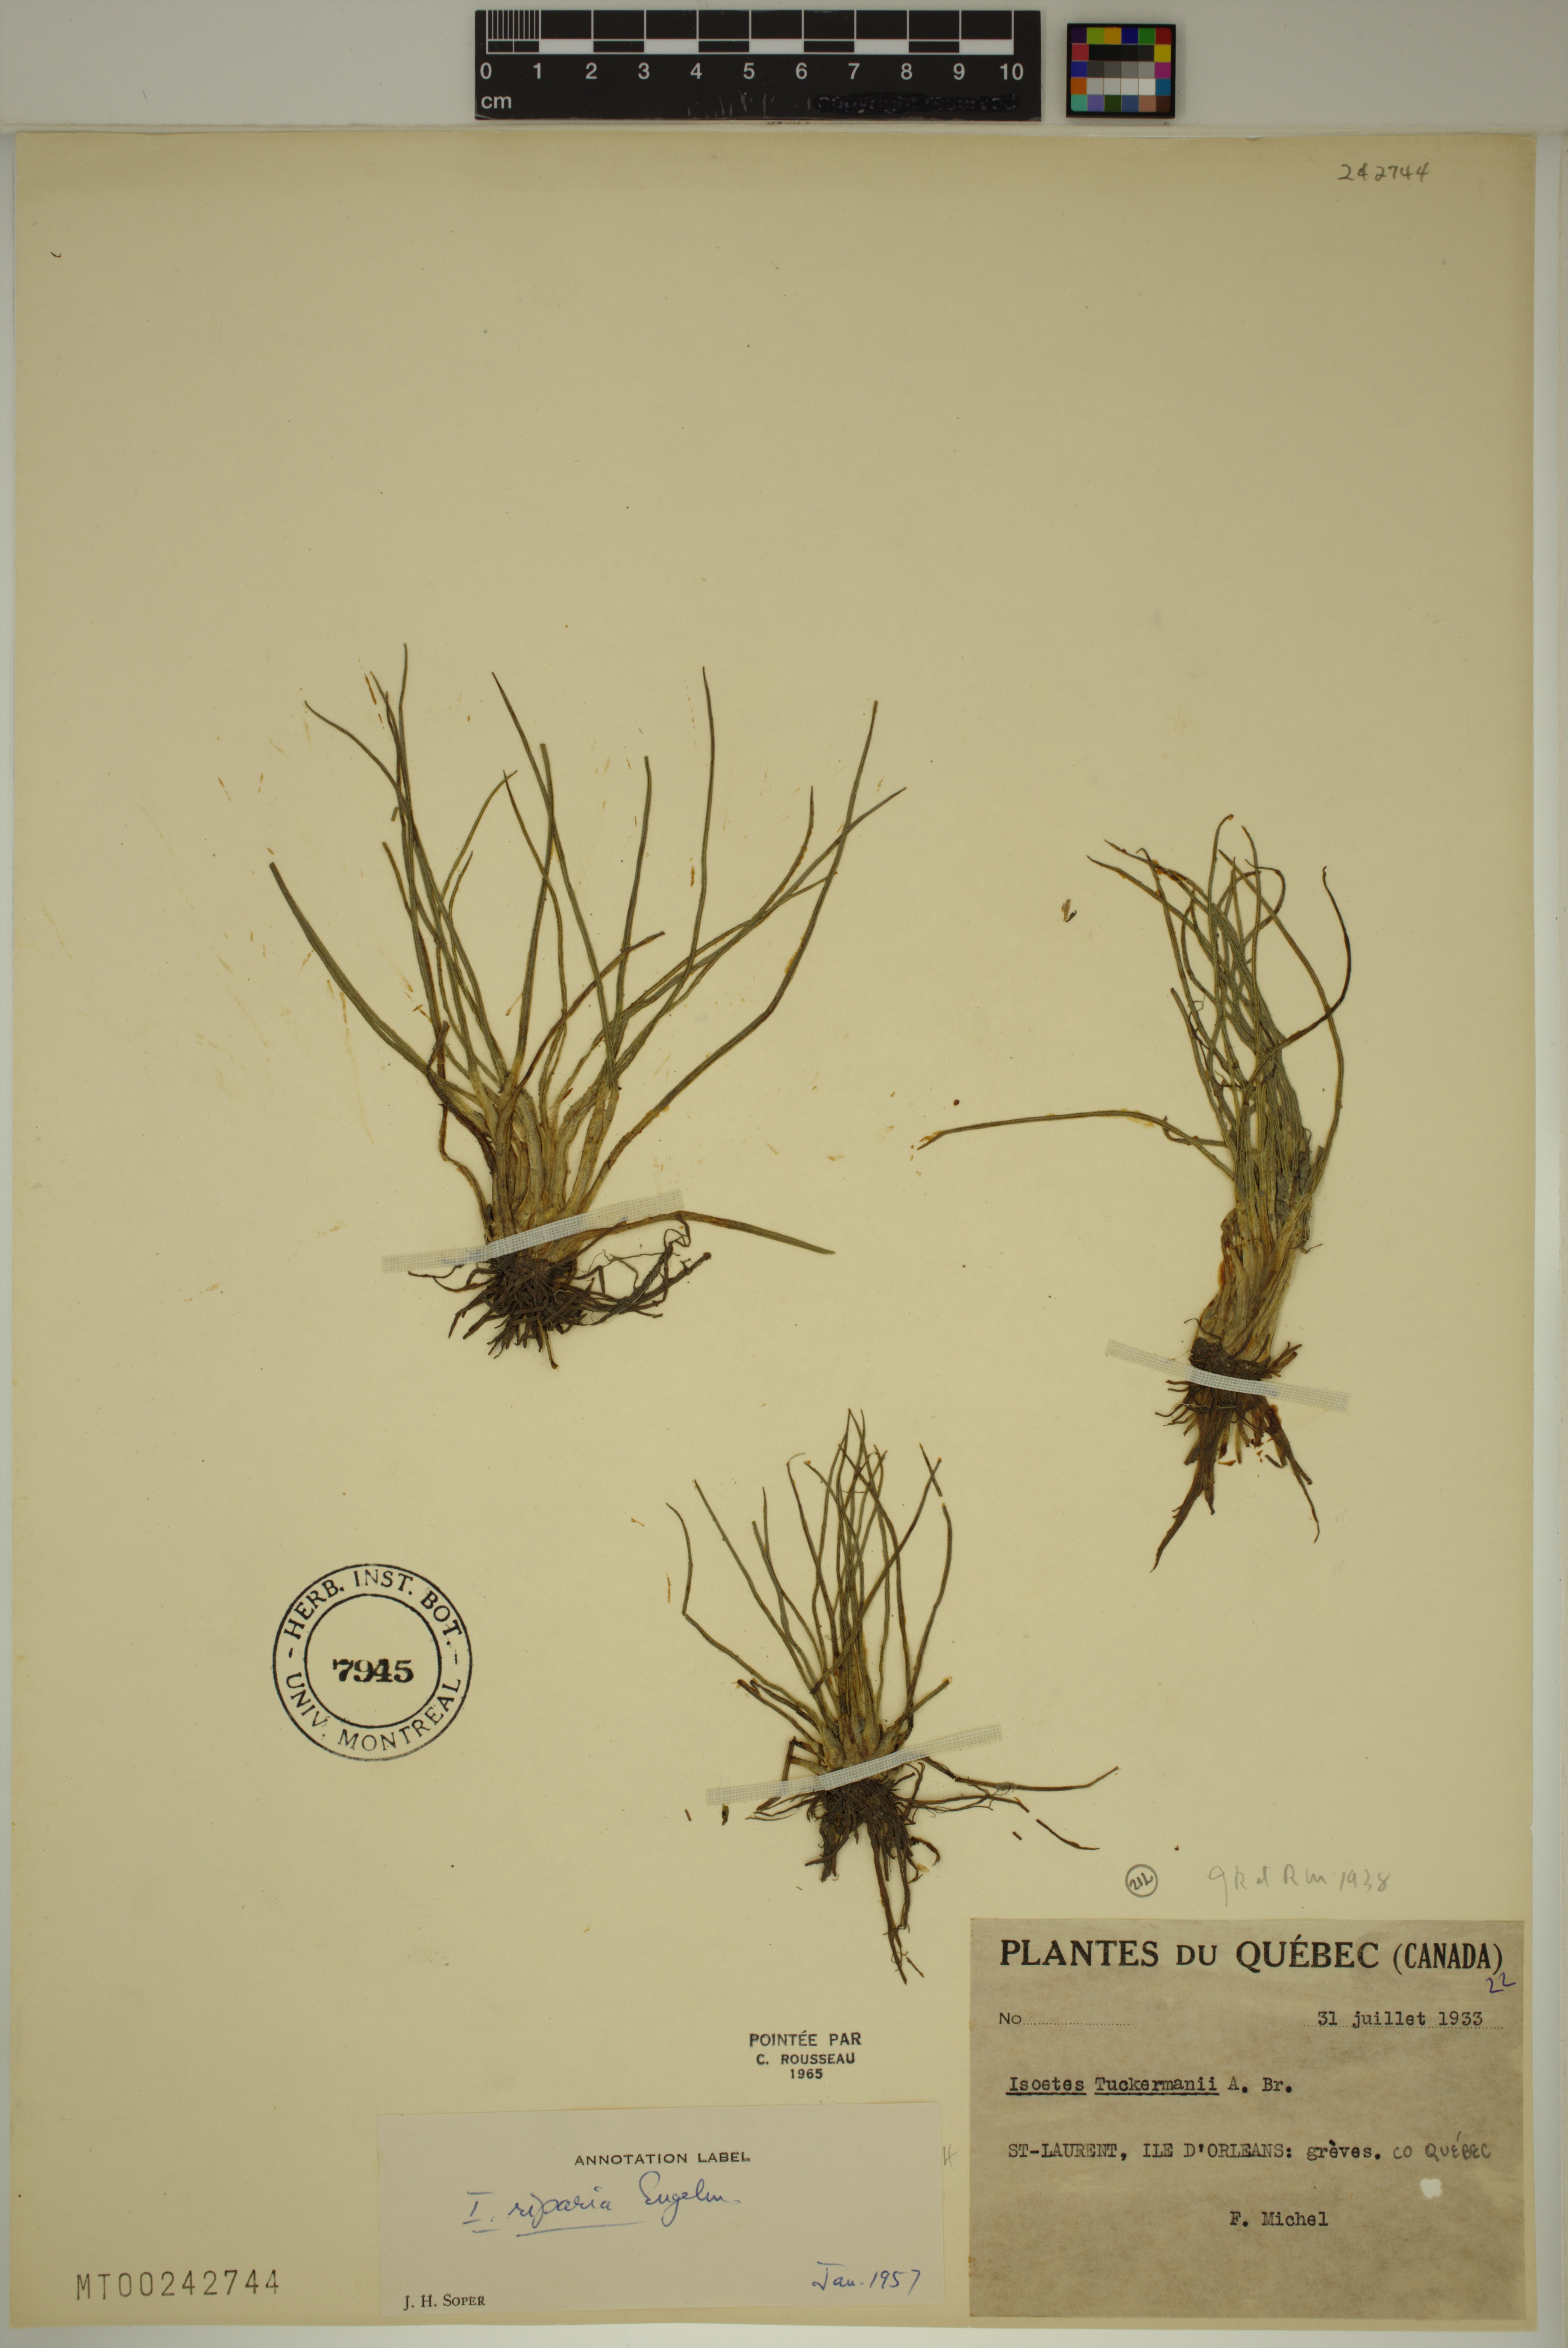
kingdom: Plantae
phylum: Tracheophyta
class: Lycopodiopsida
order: Isoetales
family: Isoetaceae
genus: Isoetes
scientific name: Isoetes laurentiana
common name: St. lawrence quillwort
